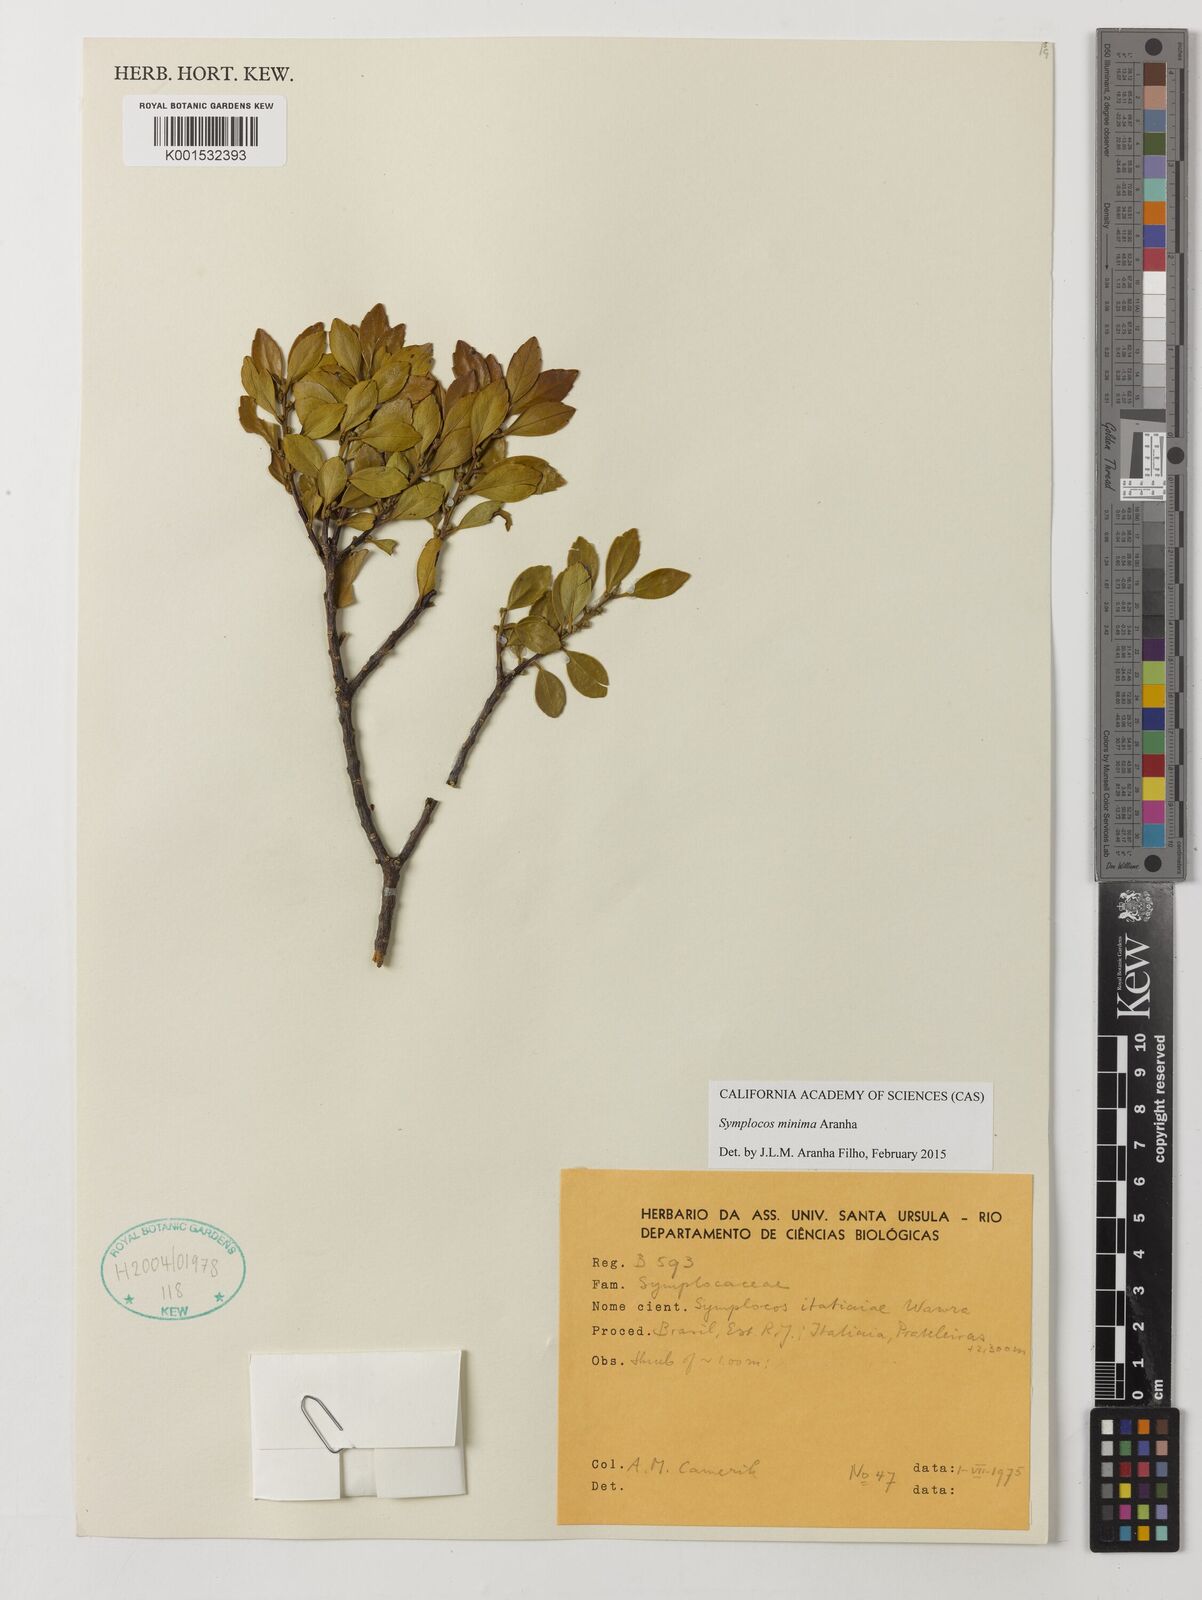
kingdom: Plantae
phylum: Tracheophyta
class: Magnoliopsida
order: Ericales
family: Symplocaceae
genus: Symplocos
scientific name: Symplocos minima
